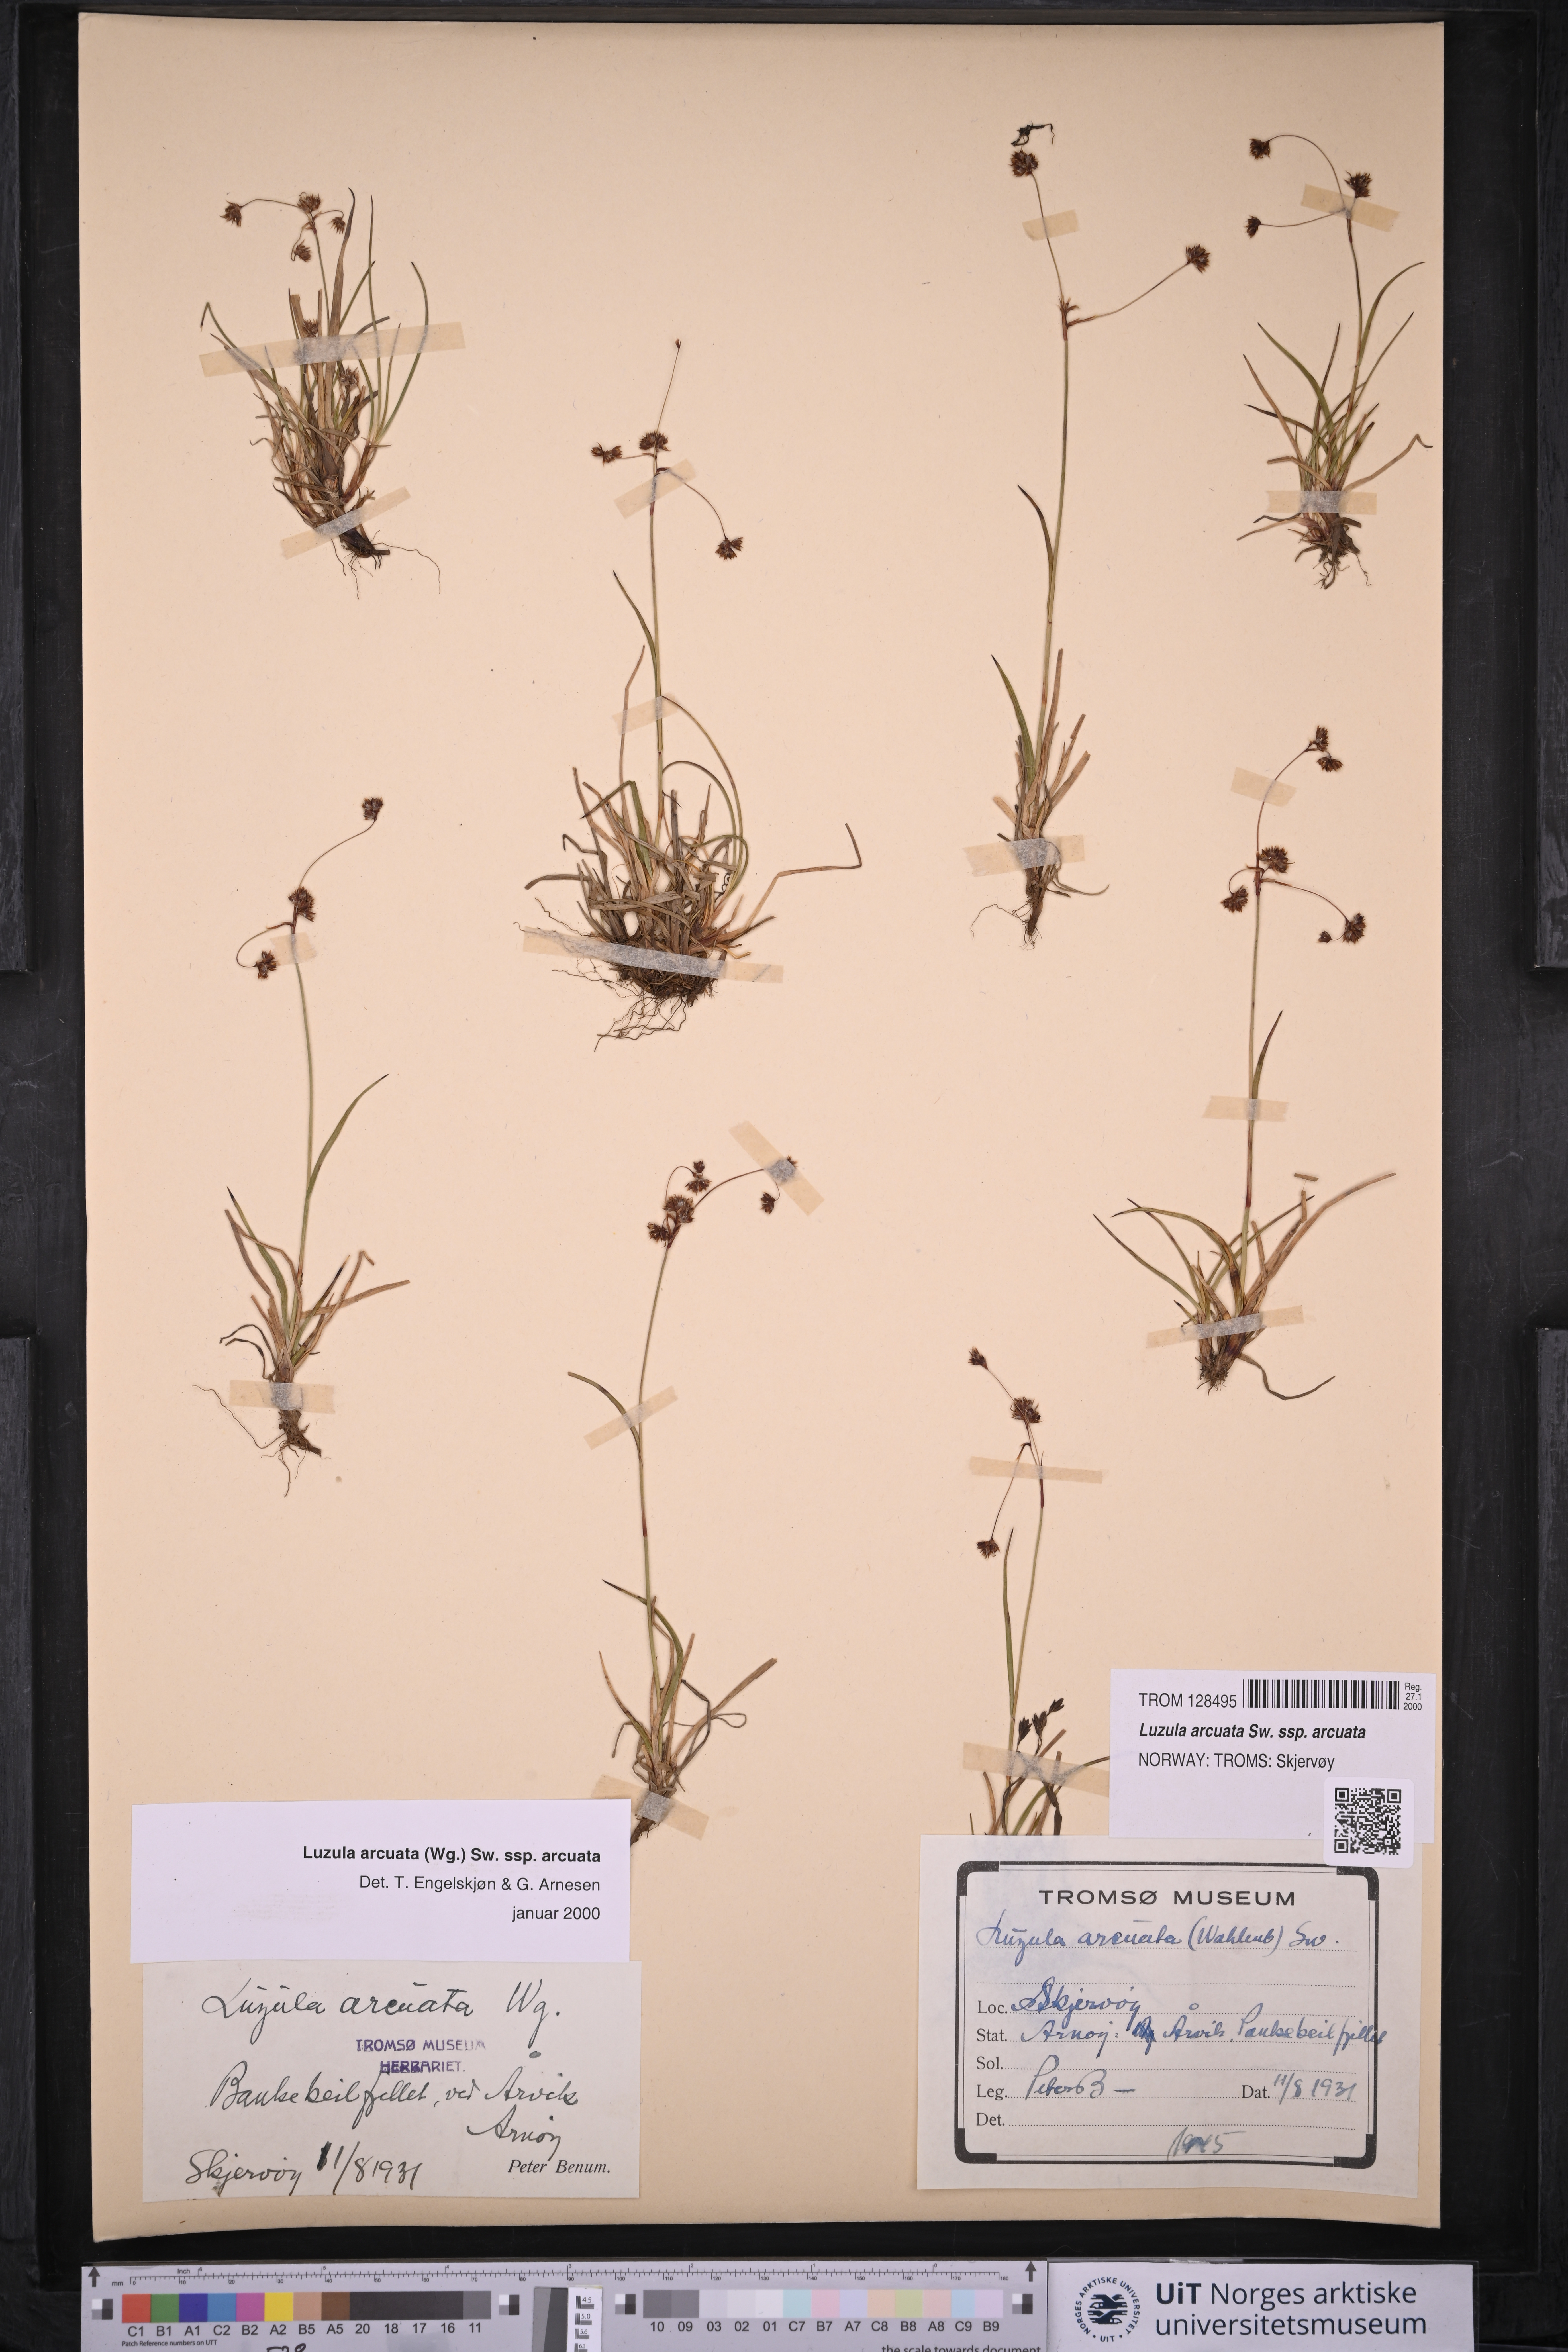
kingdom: Plantae
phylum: Tracheophyta
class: Liliopsida
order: Poales
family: Juncaceae
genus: Luzula
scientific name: Luzula arcuata
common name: Curved wood-rush
